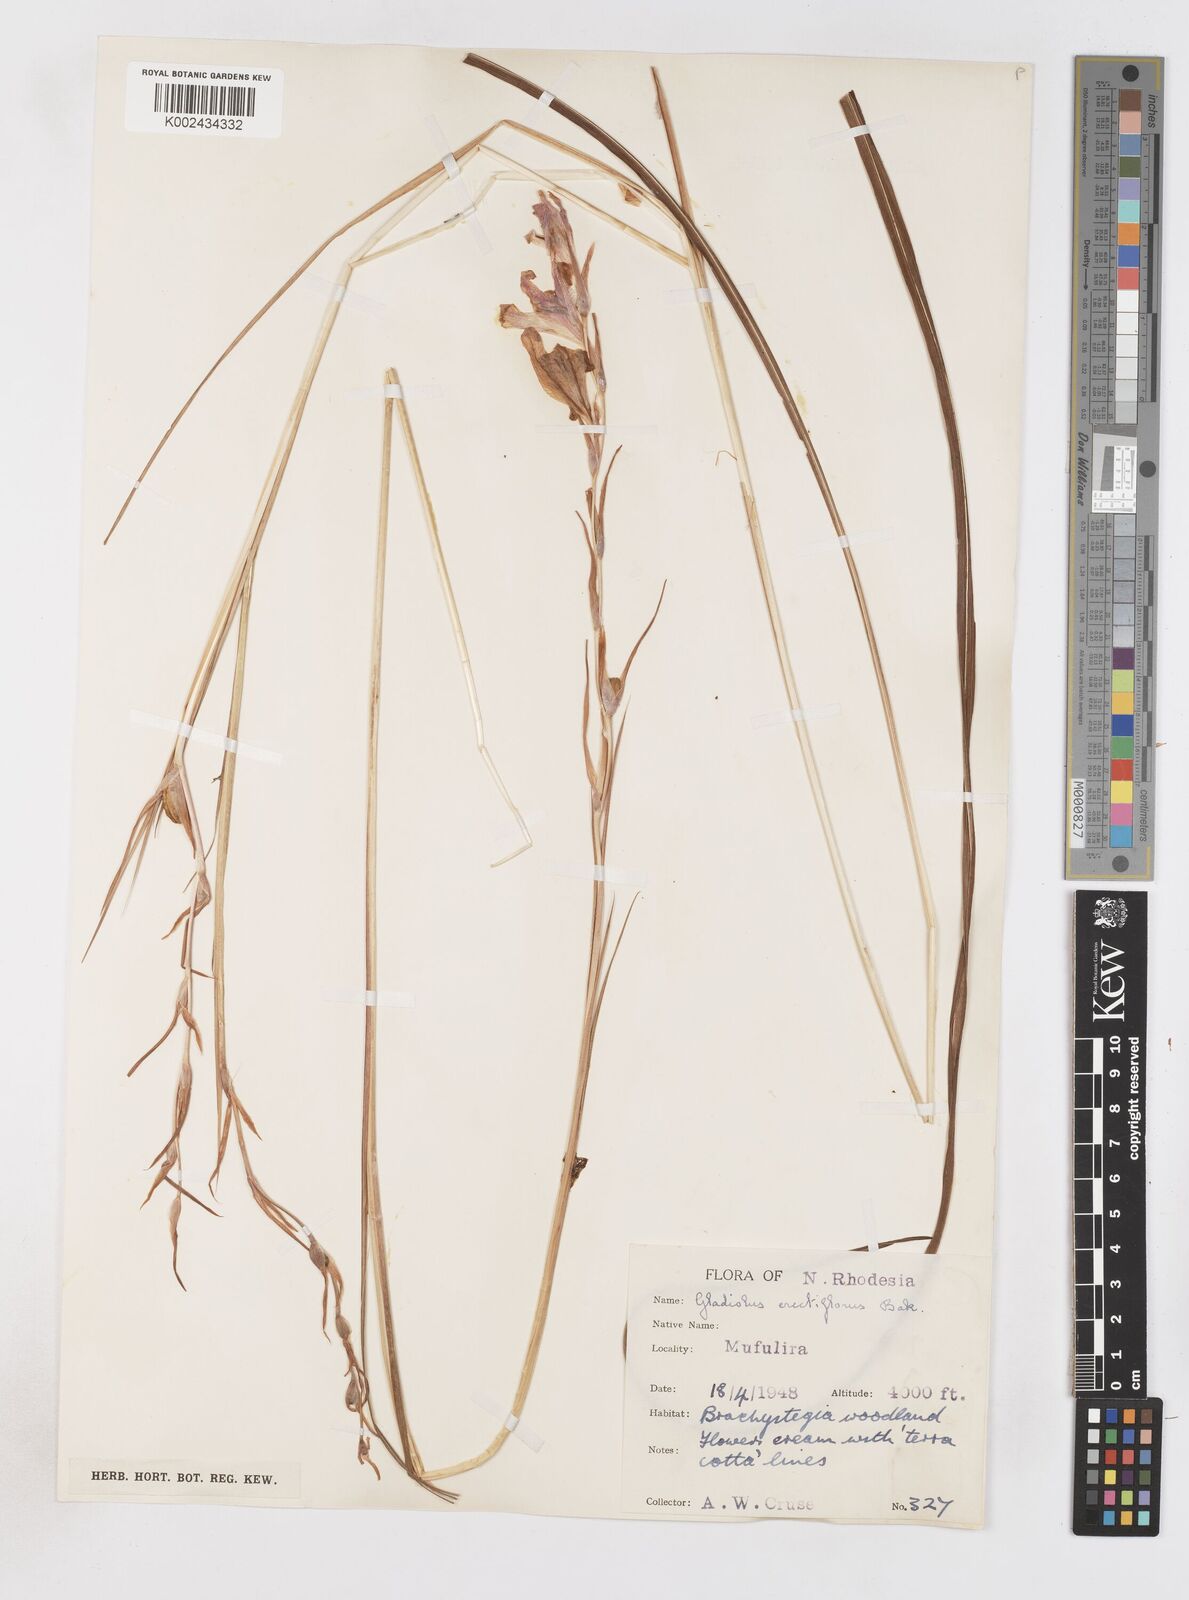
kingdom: Plantae
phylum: Tracheophyta
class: Liliopsida
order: Asparagales
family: Iridaceae
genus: Gladiolus
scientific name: Gladiolus erectiflorus
